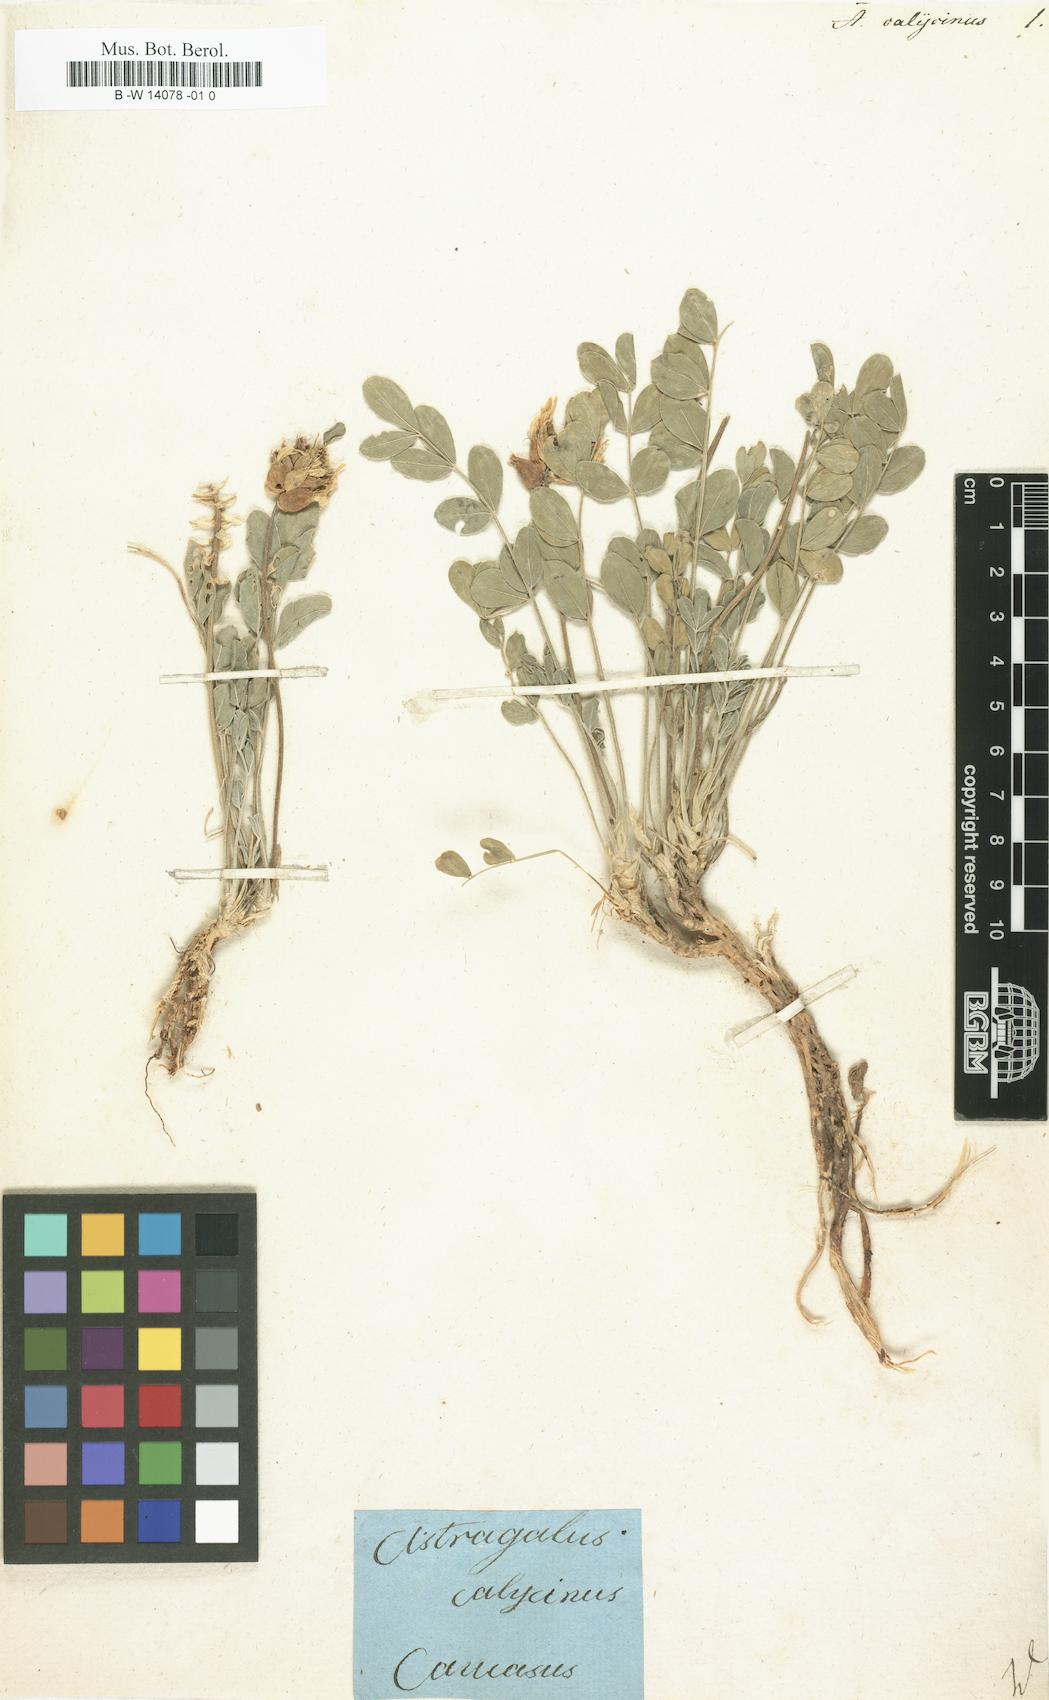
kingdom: Plantae
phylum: Tracheophyta
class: Magnoliopsida
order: Fabales
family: Fabaceae
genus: Astragalus
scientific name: Astragalus calycinus
